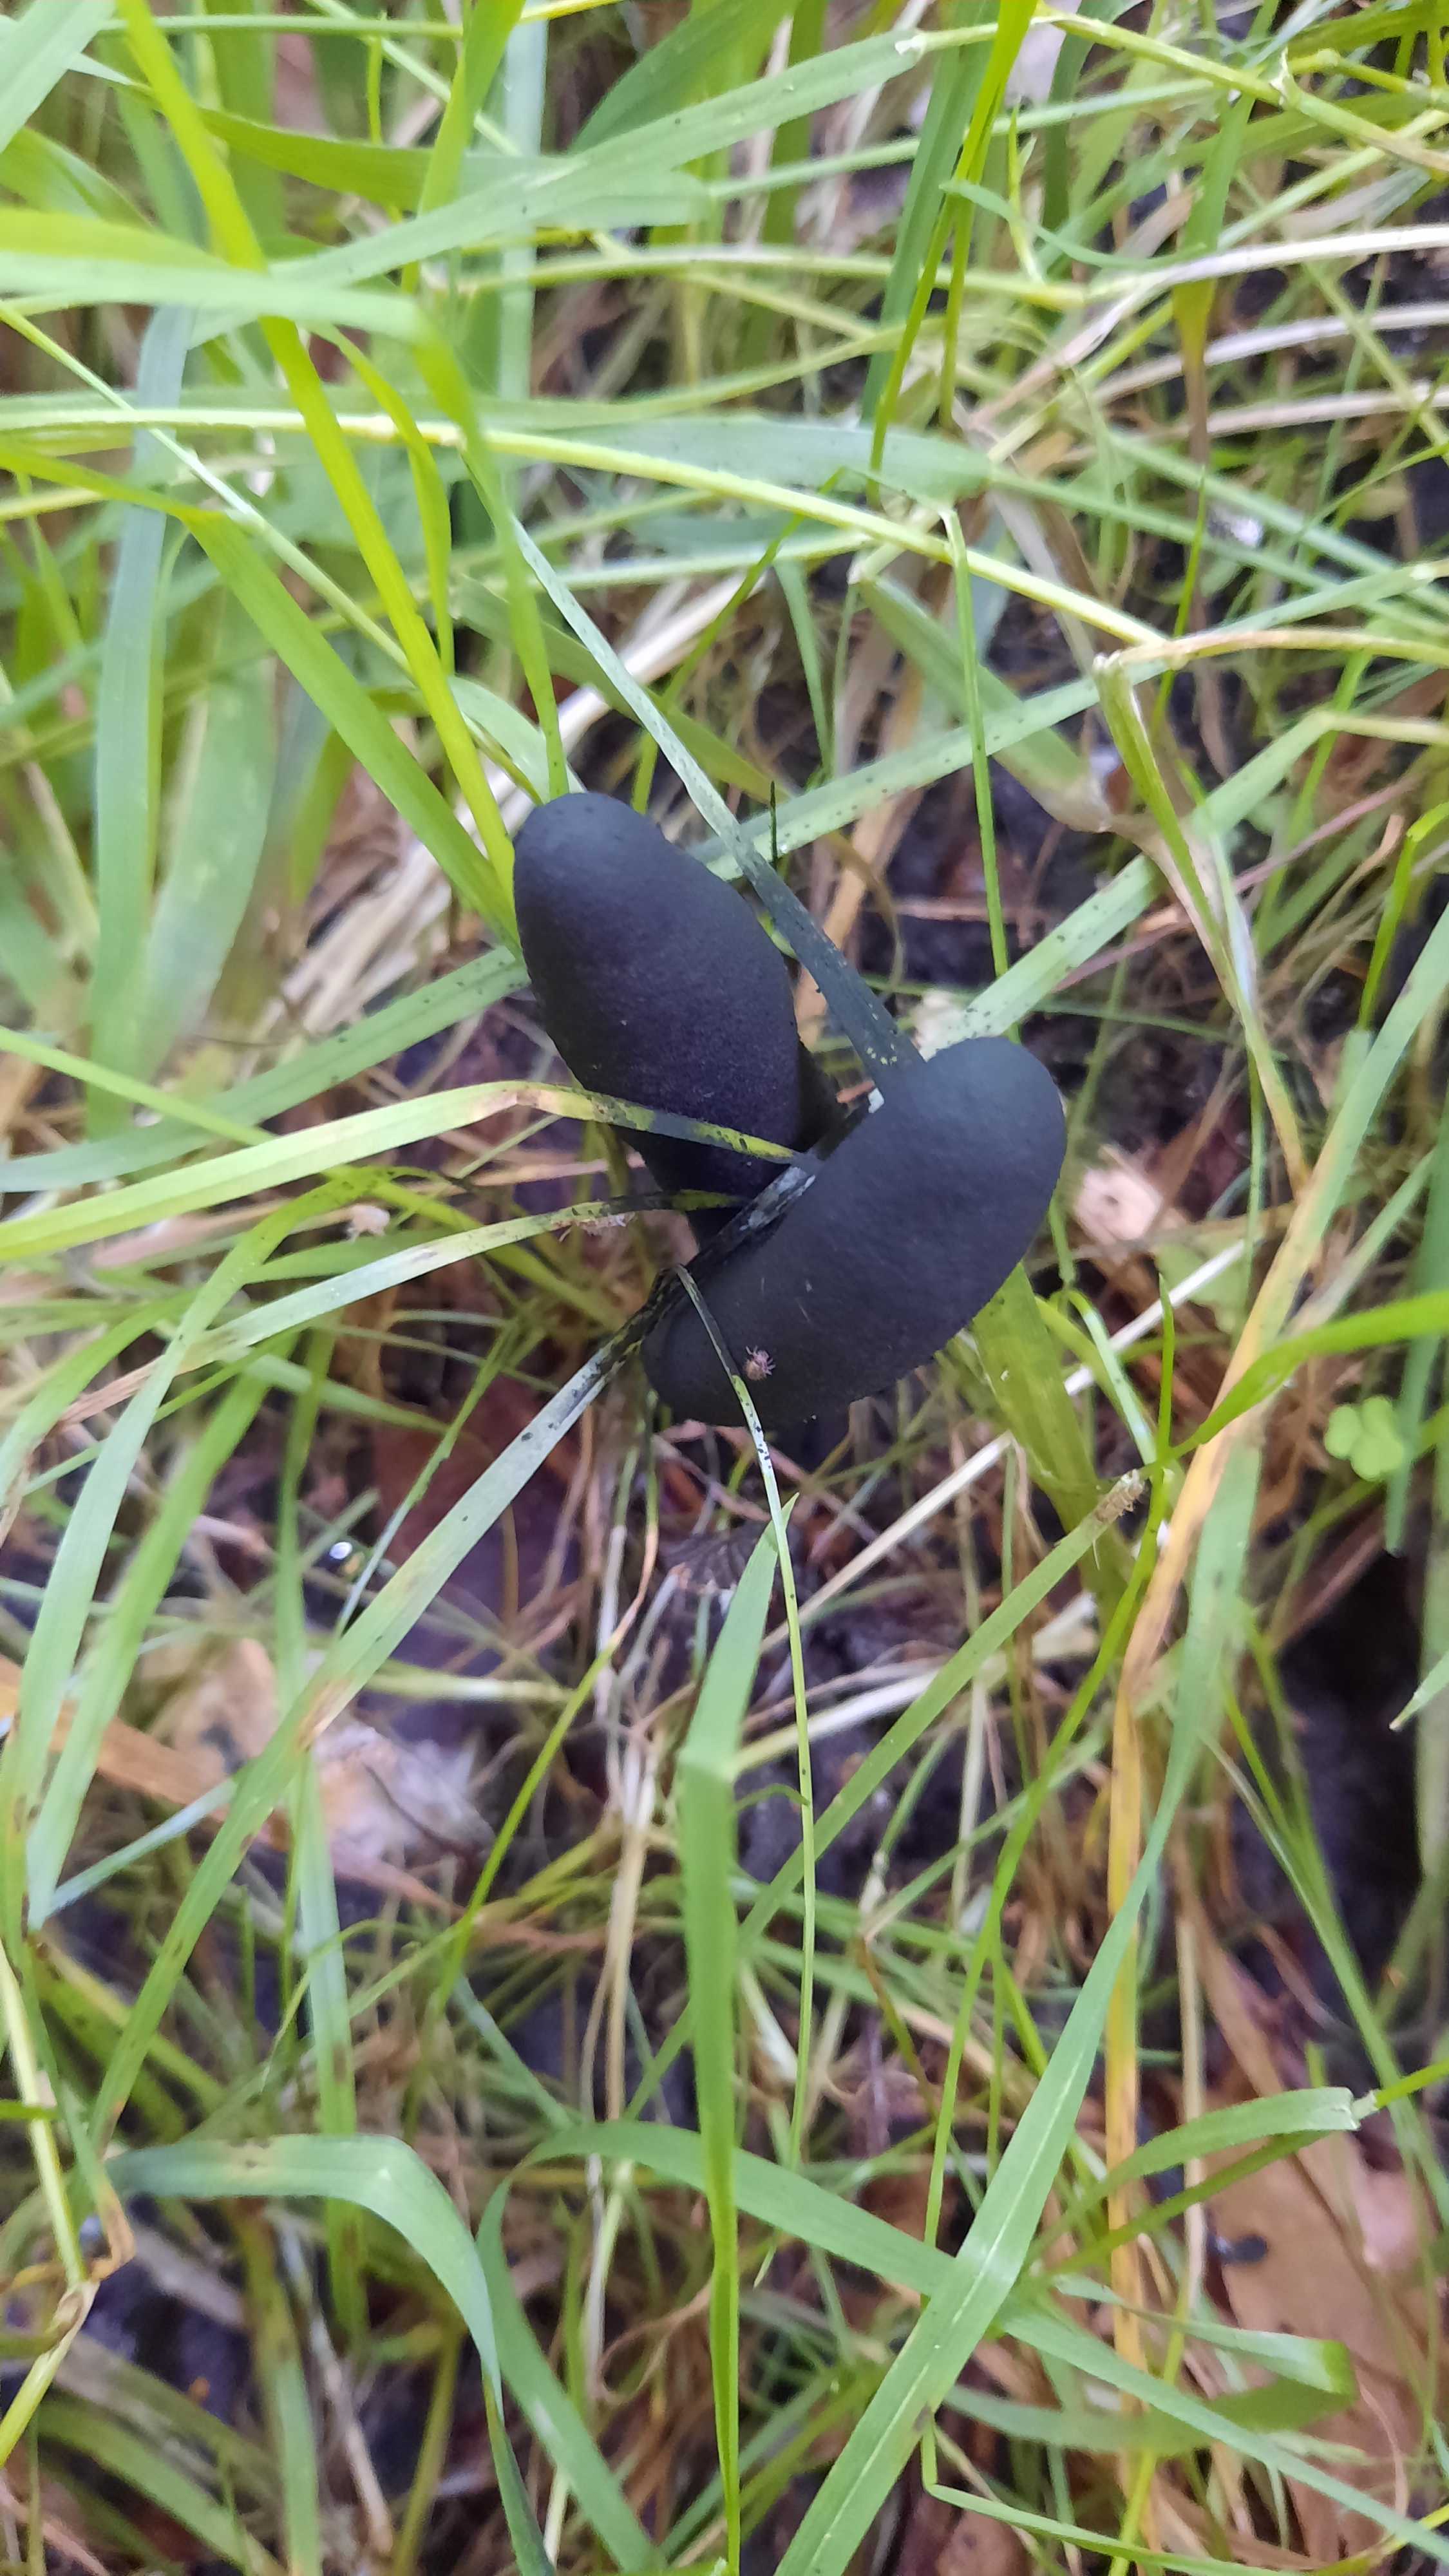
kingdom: Fungi
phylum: Ascomycota
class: Sordariomycetes
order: Xylariales
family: Xylariaceae
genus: Xylaria
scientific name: Xylaria longipes
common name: slank stødsvamp
